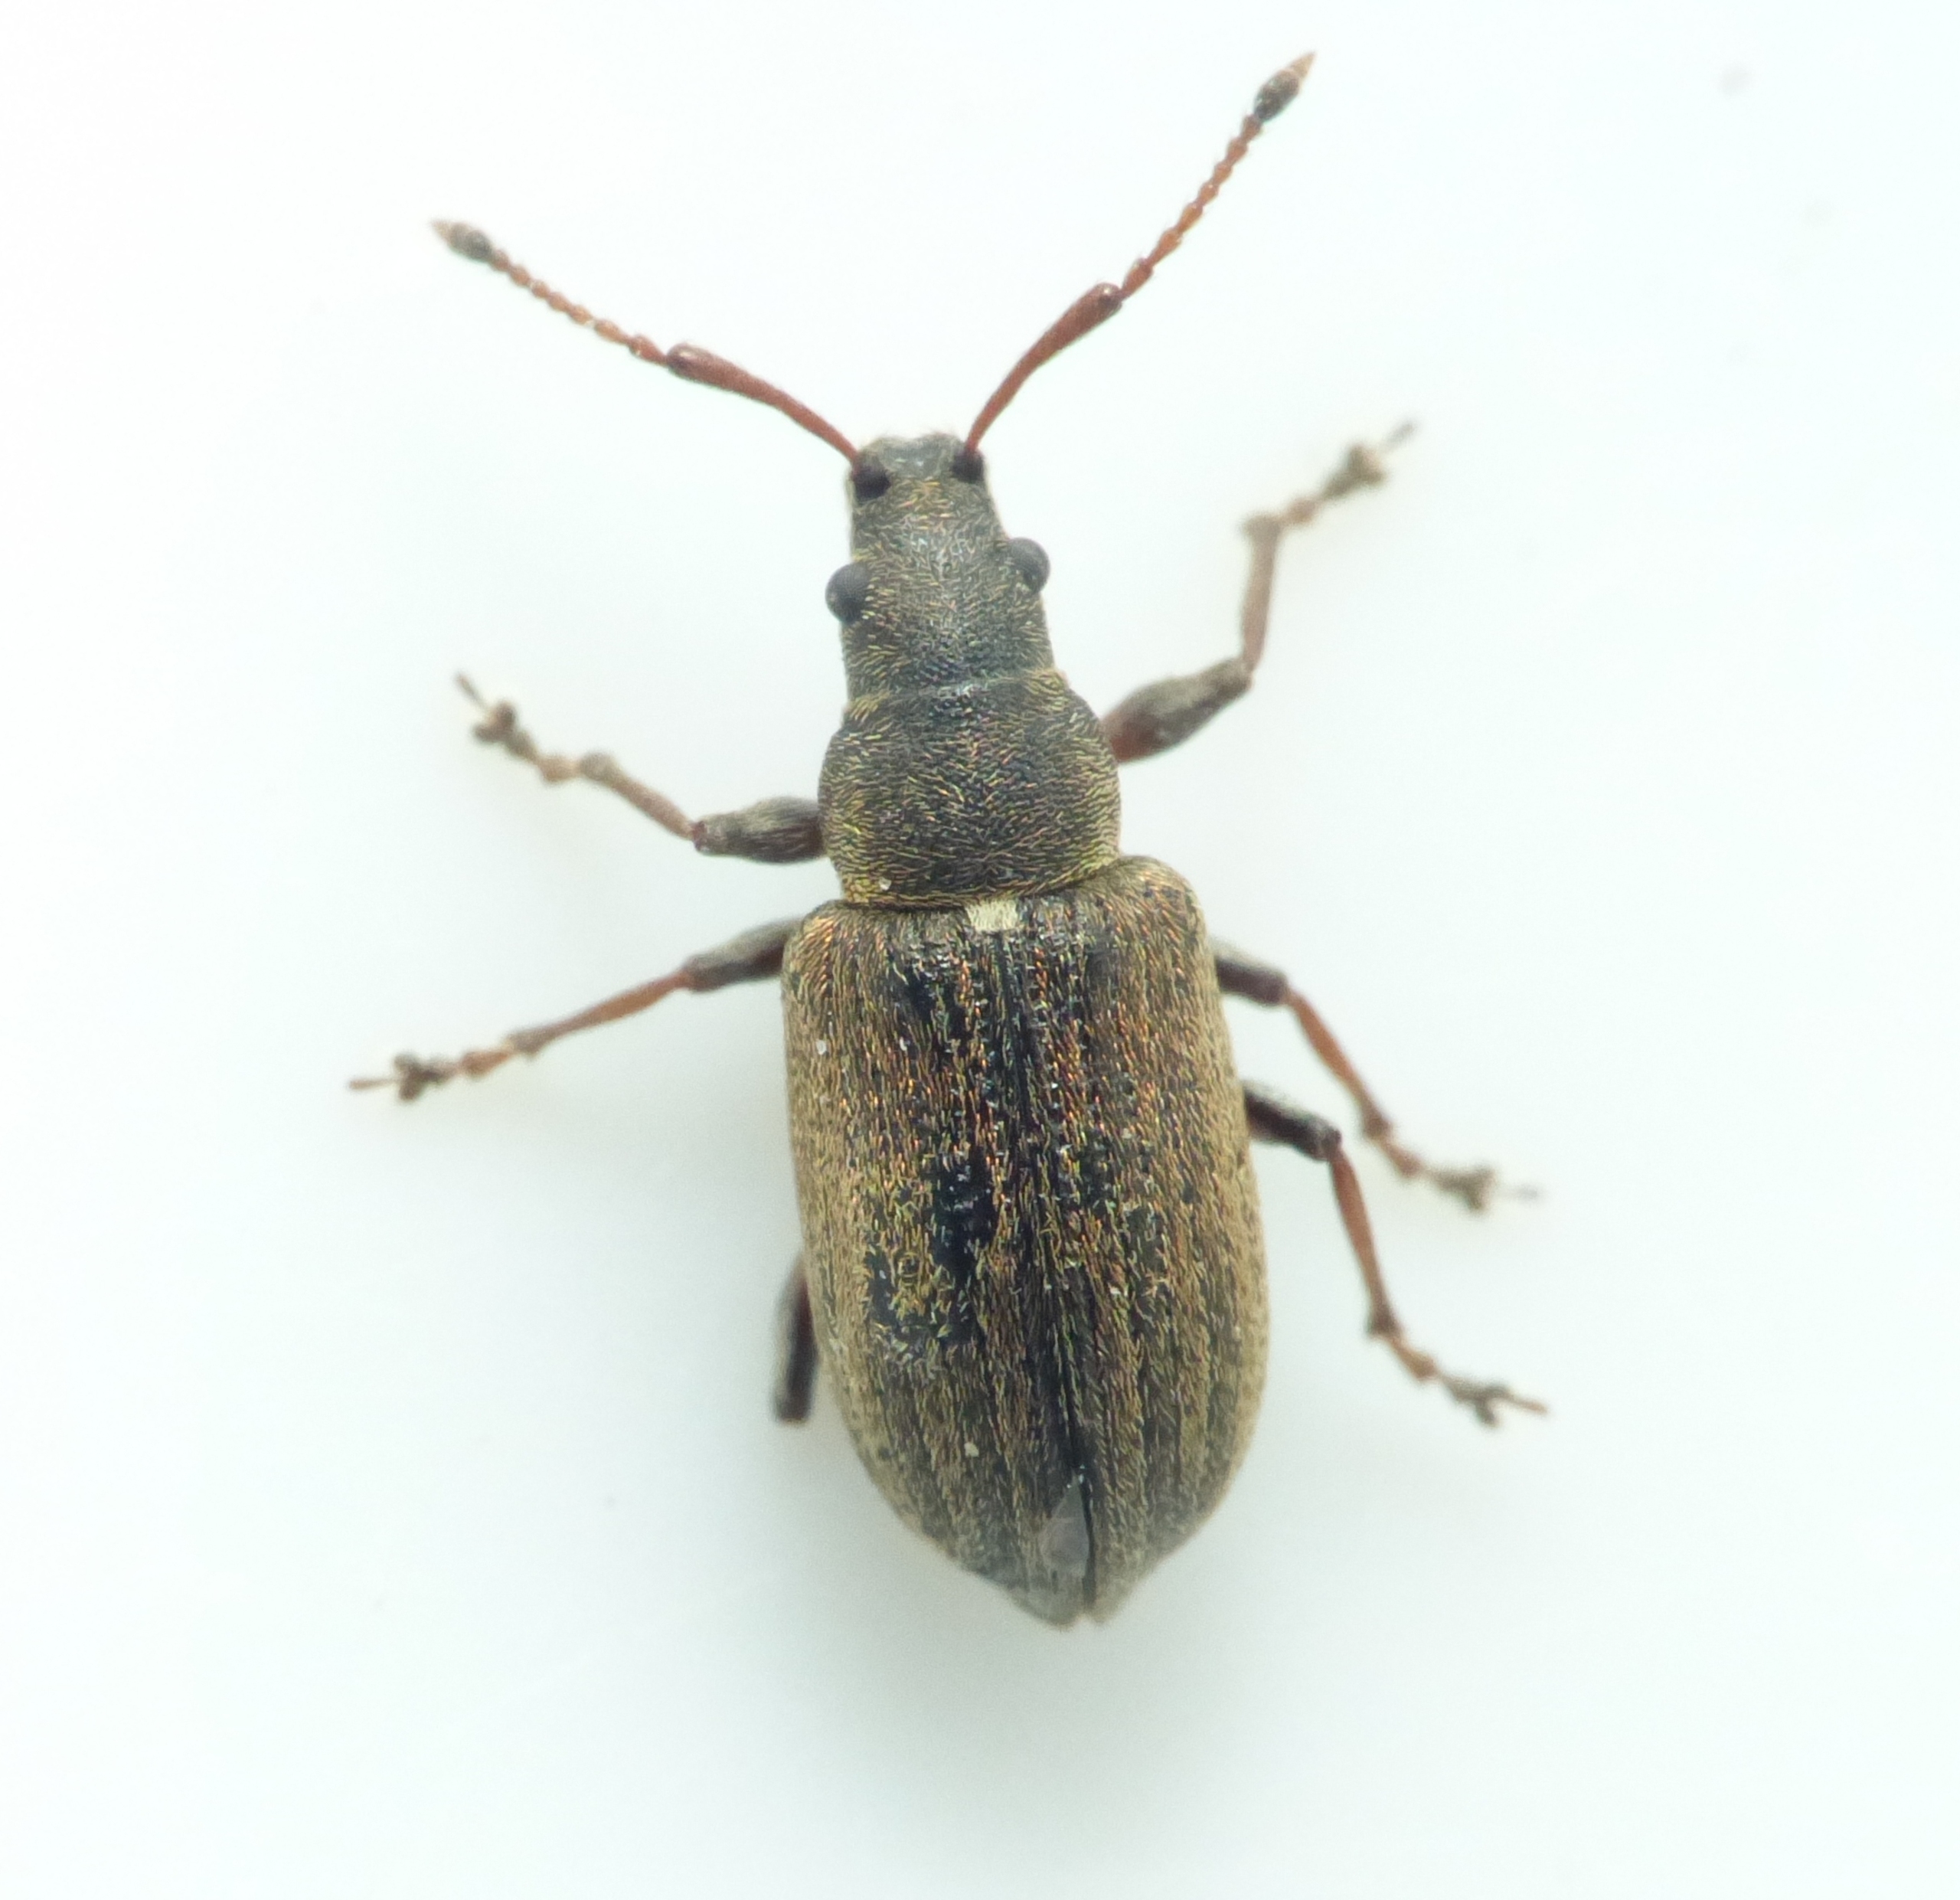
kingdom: Animalia
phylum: Arthropoda
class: Insecta
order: Coleoptera
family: Curculionidae
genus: Phyllobius
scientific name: Phyllobius pyri
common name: Pæreløvsnudebille
